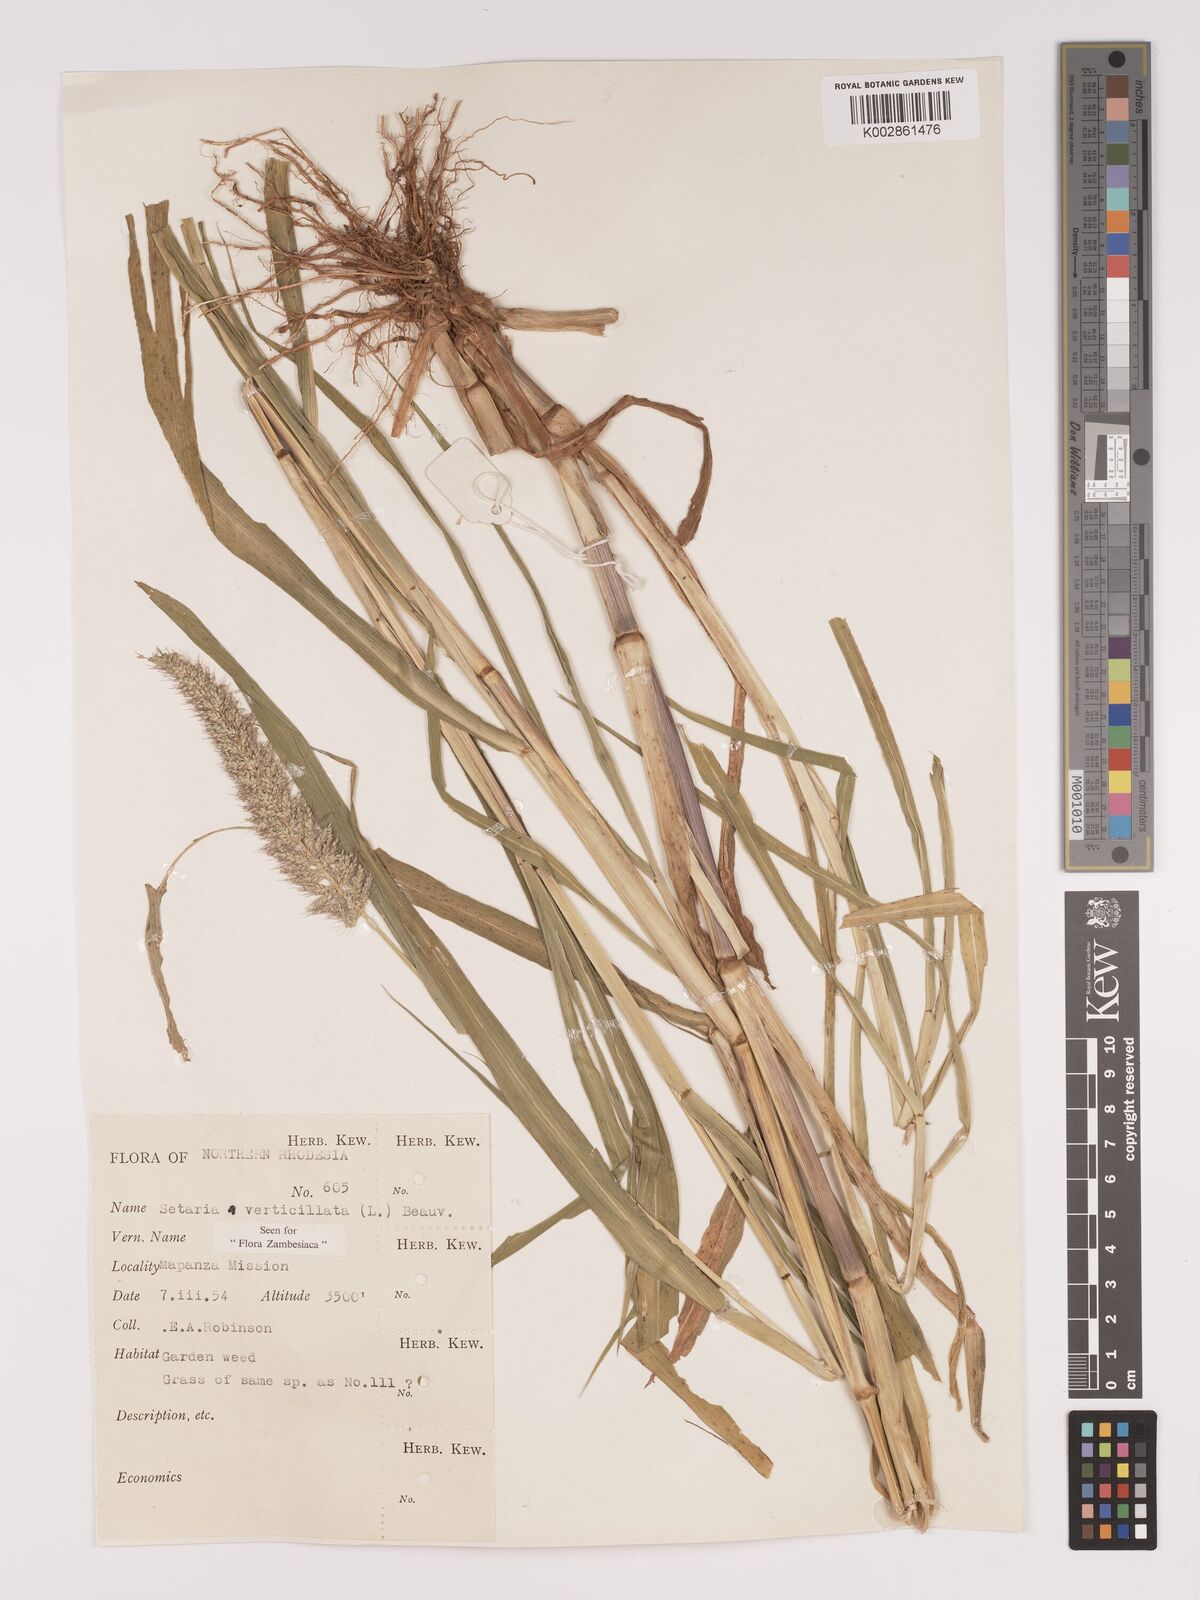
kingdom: Plantae
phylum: Tracheophyta
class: Liliopsida
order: Poales
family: Poaceae
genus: Setaria
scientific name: Setaria verticillata
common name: Hooked bristlegrass
